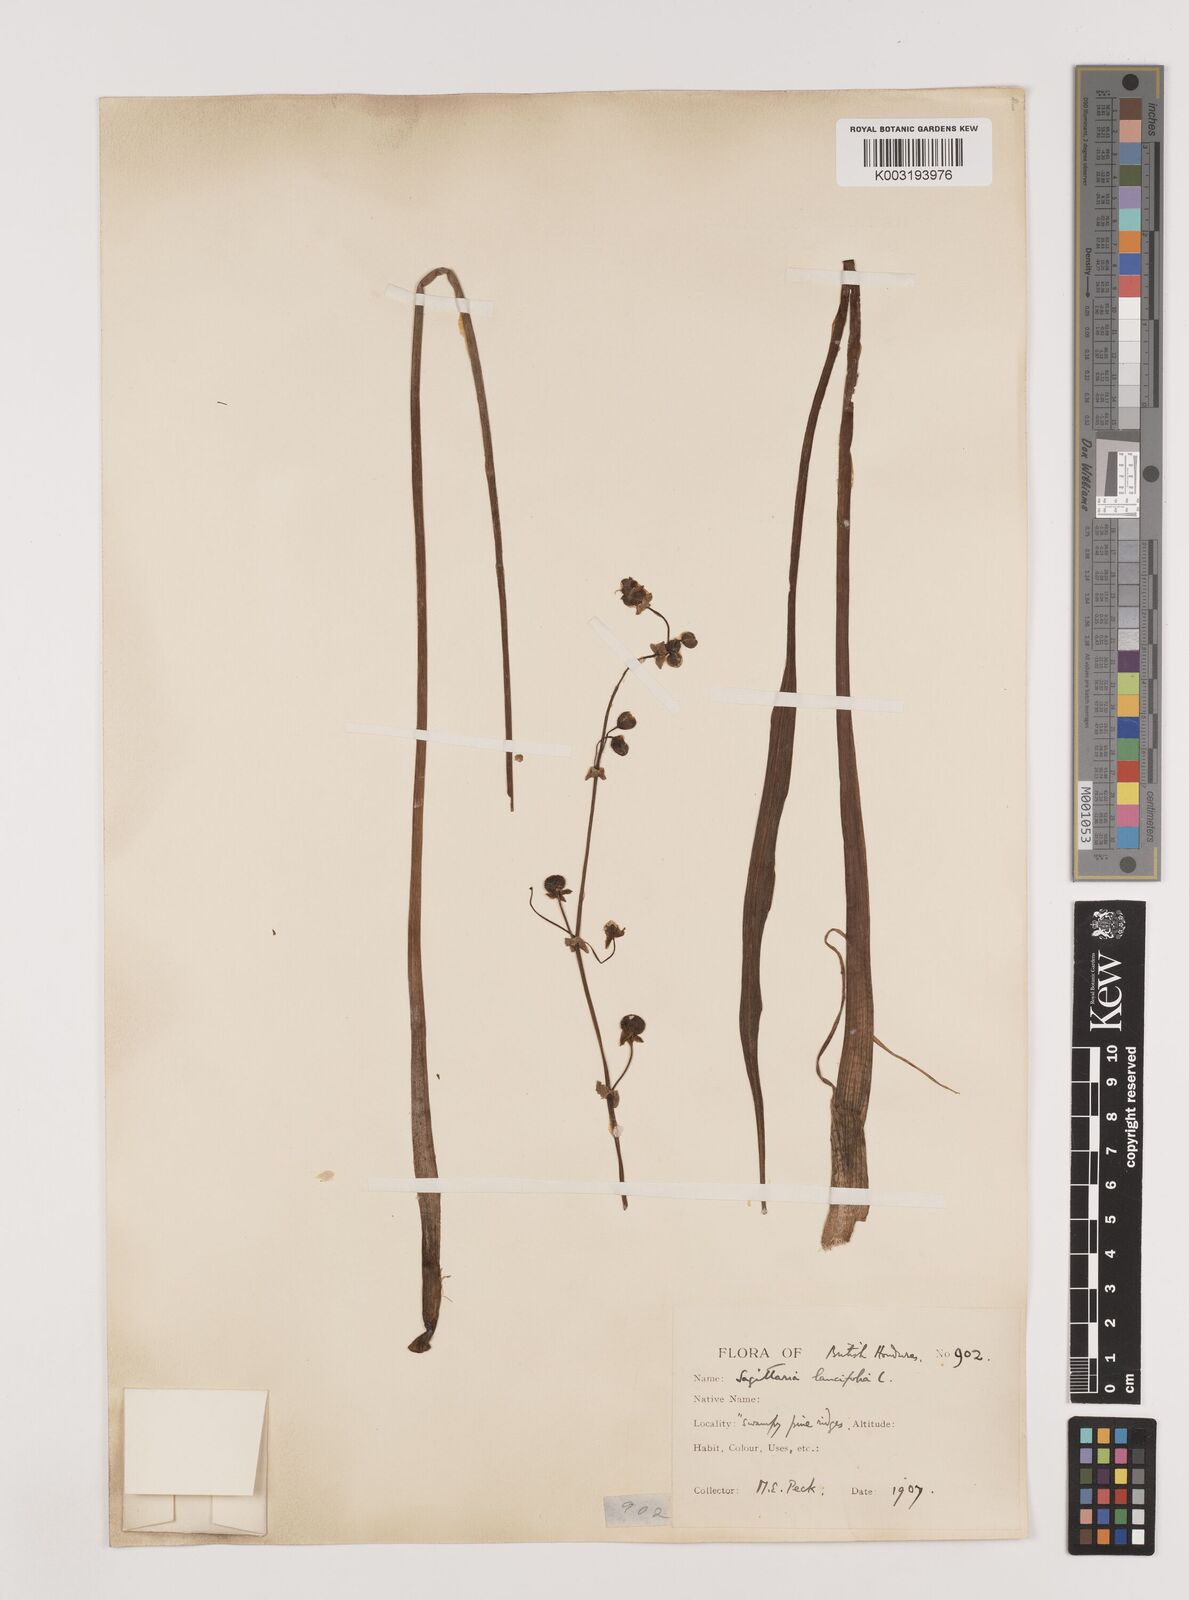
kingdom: Plantae
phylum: Tracheophyta
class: Liliopsida
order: Alismatales
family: Alismataceae
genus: Sagittaria
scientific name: Sagittaria lancifolia
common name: Lance-leaf arrowhead
